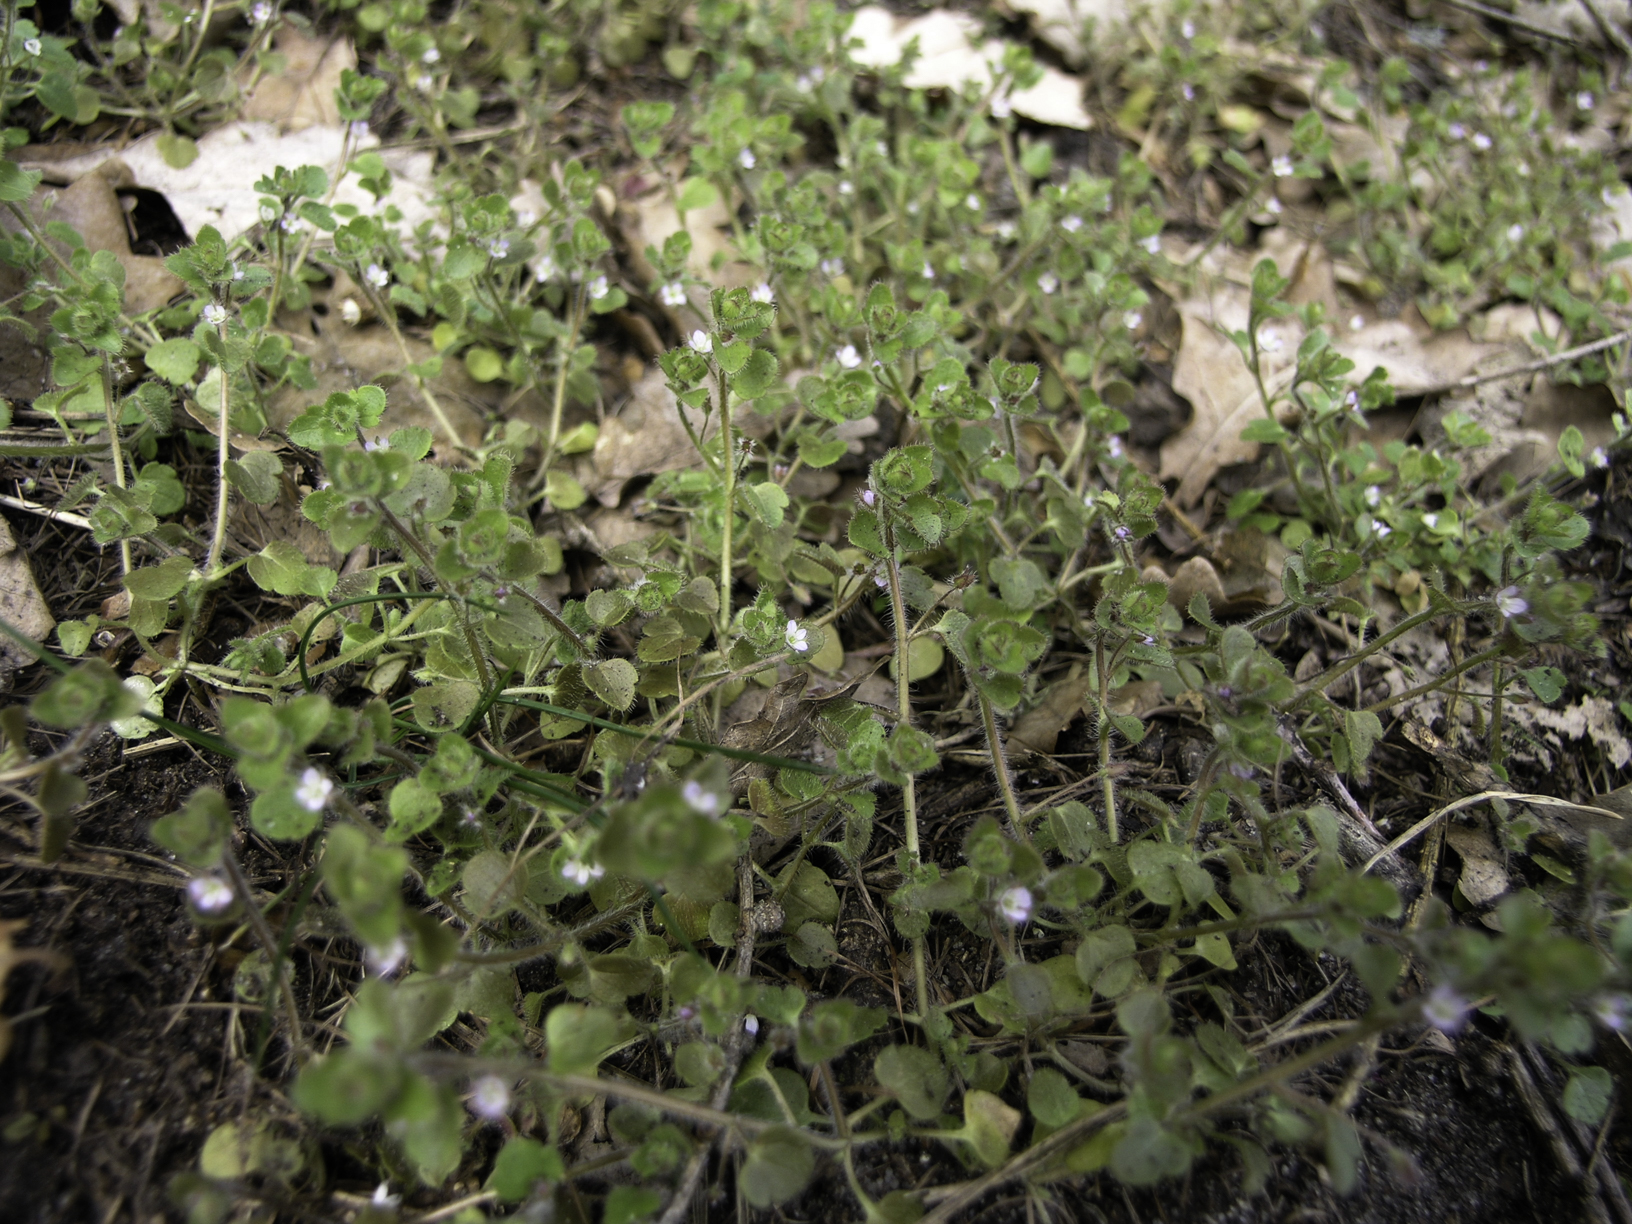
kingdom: Plantae
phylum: Tracheophyta
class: Magnoliopsida
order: Lamiales
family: Plantaginaceae
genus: Veronica
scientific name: Veronica serpyllifolia
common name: Thyme-leaved speedwell
